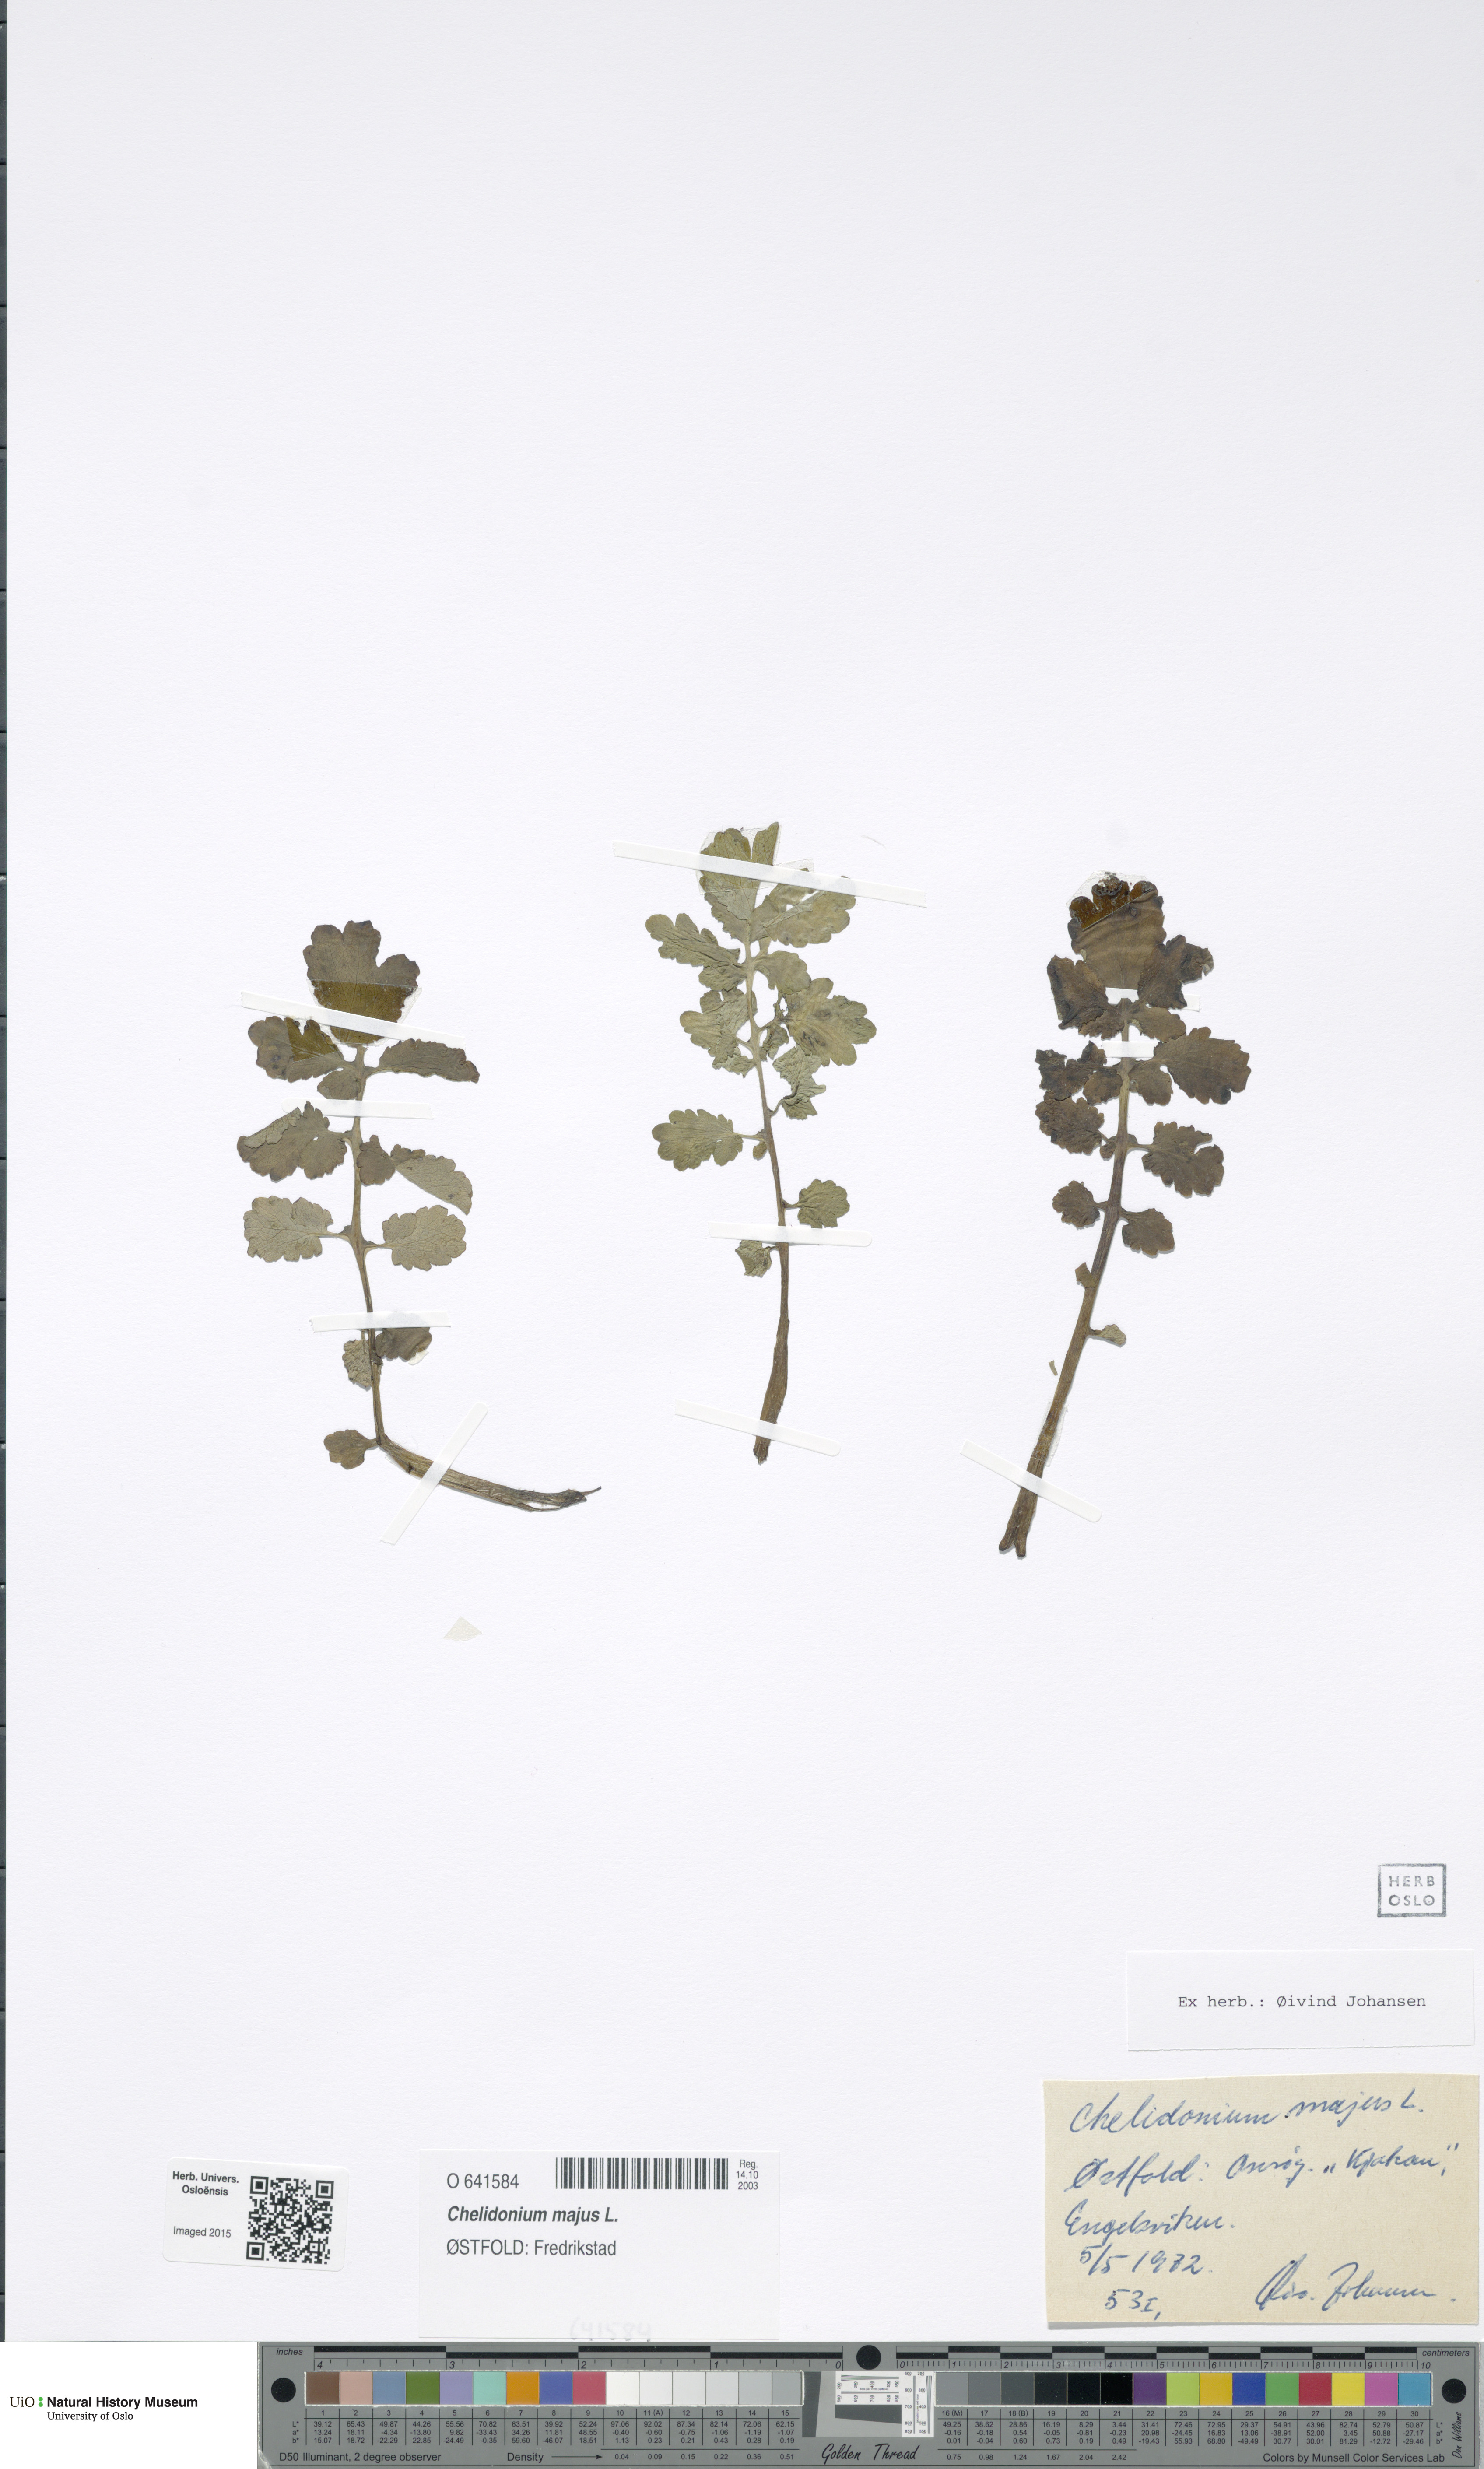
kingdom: Plantae
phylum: Tracheophyta
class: Magnoliopsida
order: Ranunculales
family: Papaveraceae
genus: Chelidonium
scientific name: Chelidonium majus
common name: Greater celandine
